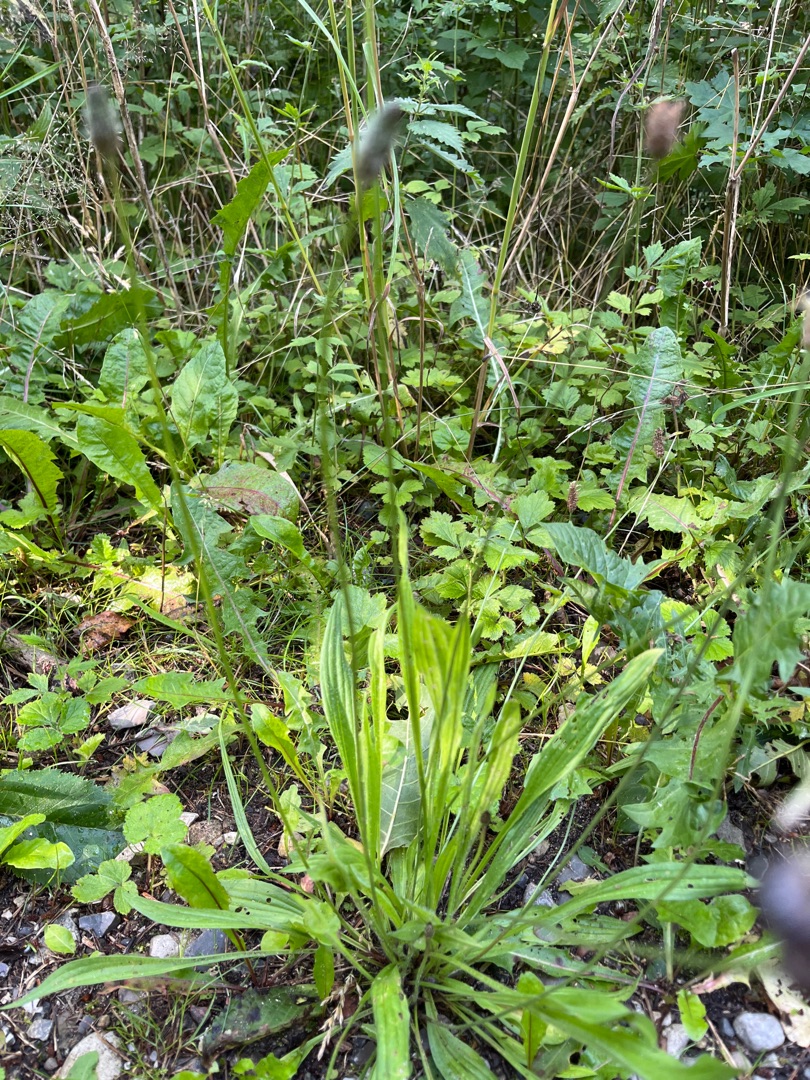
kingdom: Plantae
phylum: Tracheophyta
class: Magnoliopsida
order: Lamiales
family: Plantaginaceae
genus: Plantago
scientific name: Plantago lanceolata
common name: Lancet-vejbred
